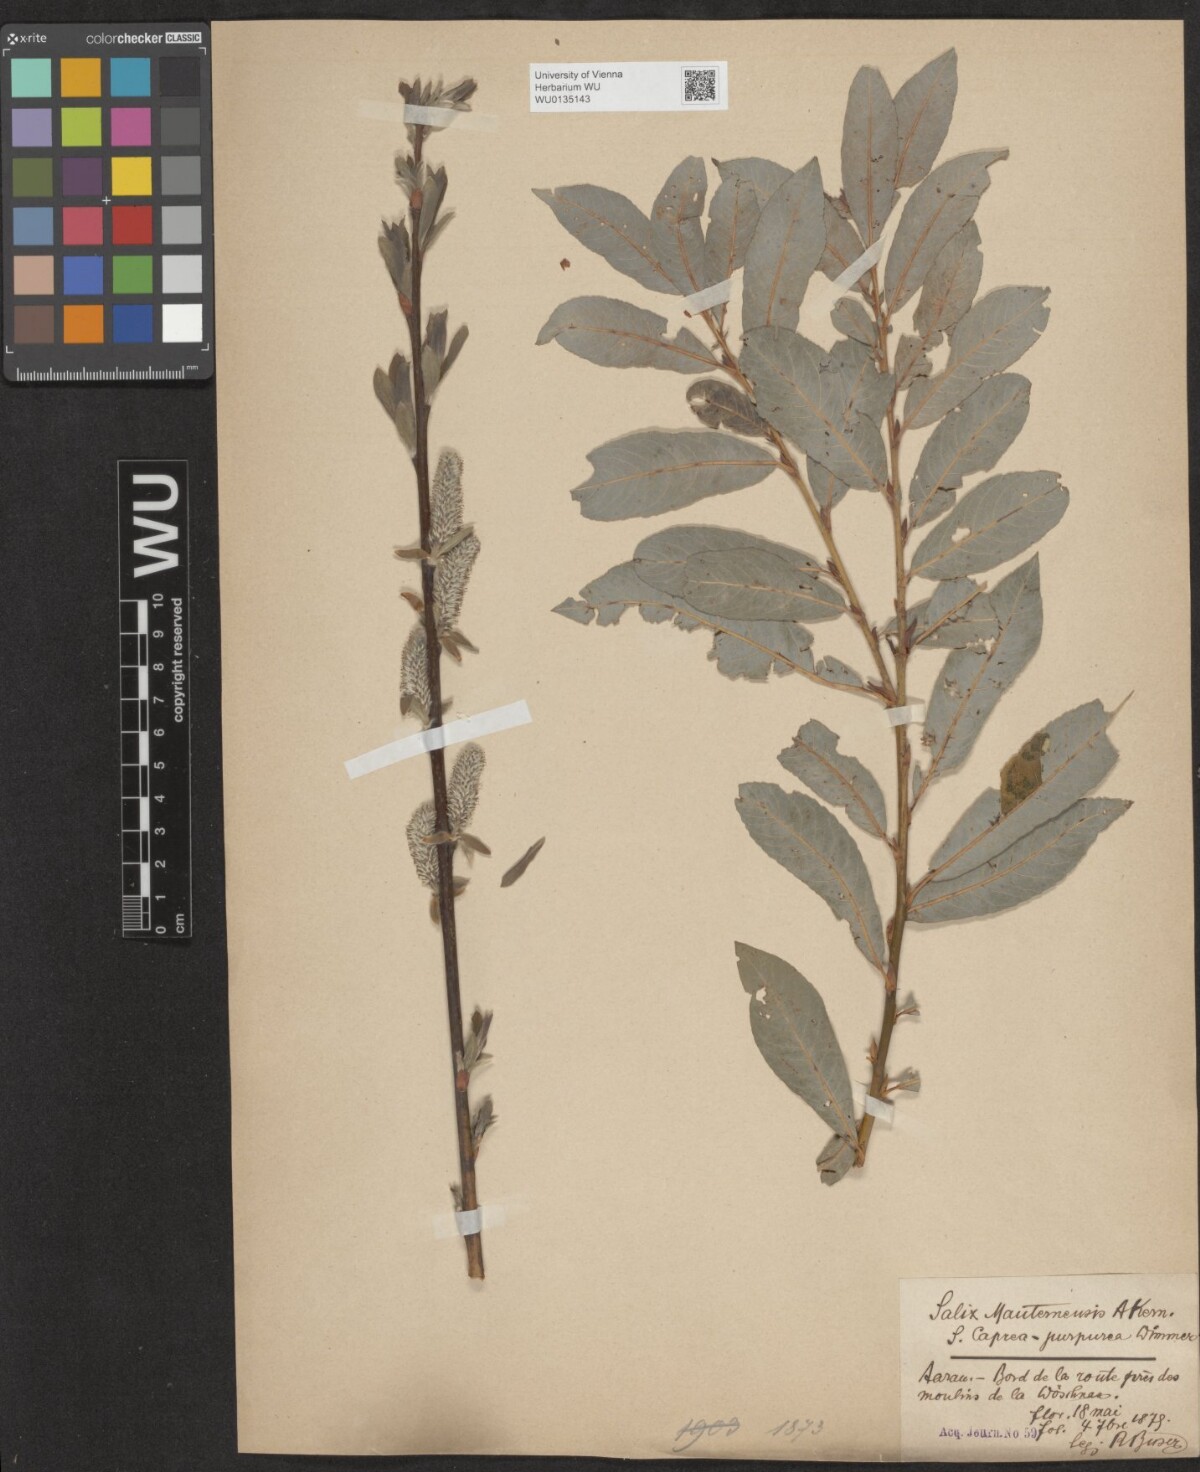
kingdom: Plantae
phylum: Tracheophyta
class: Magnoliopsida
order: Malpighiales
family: Salicaceae
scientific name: Salicaceae
